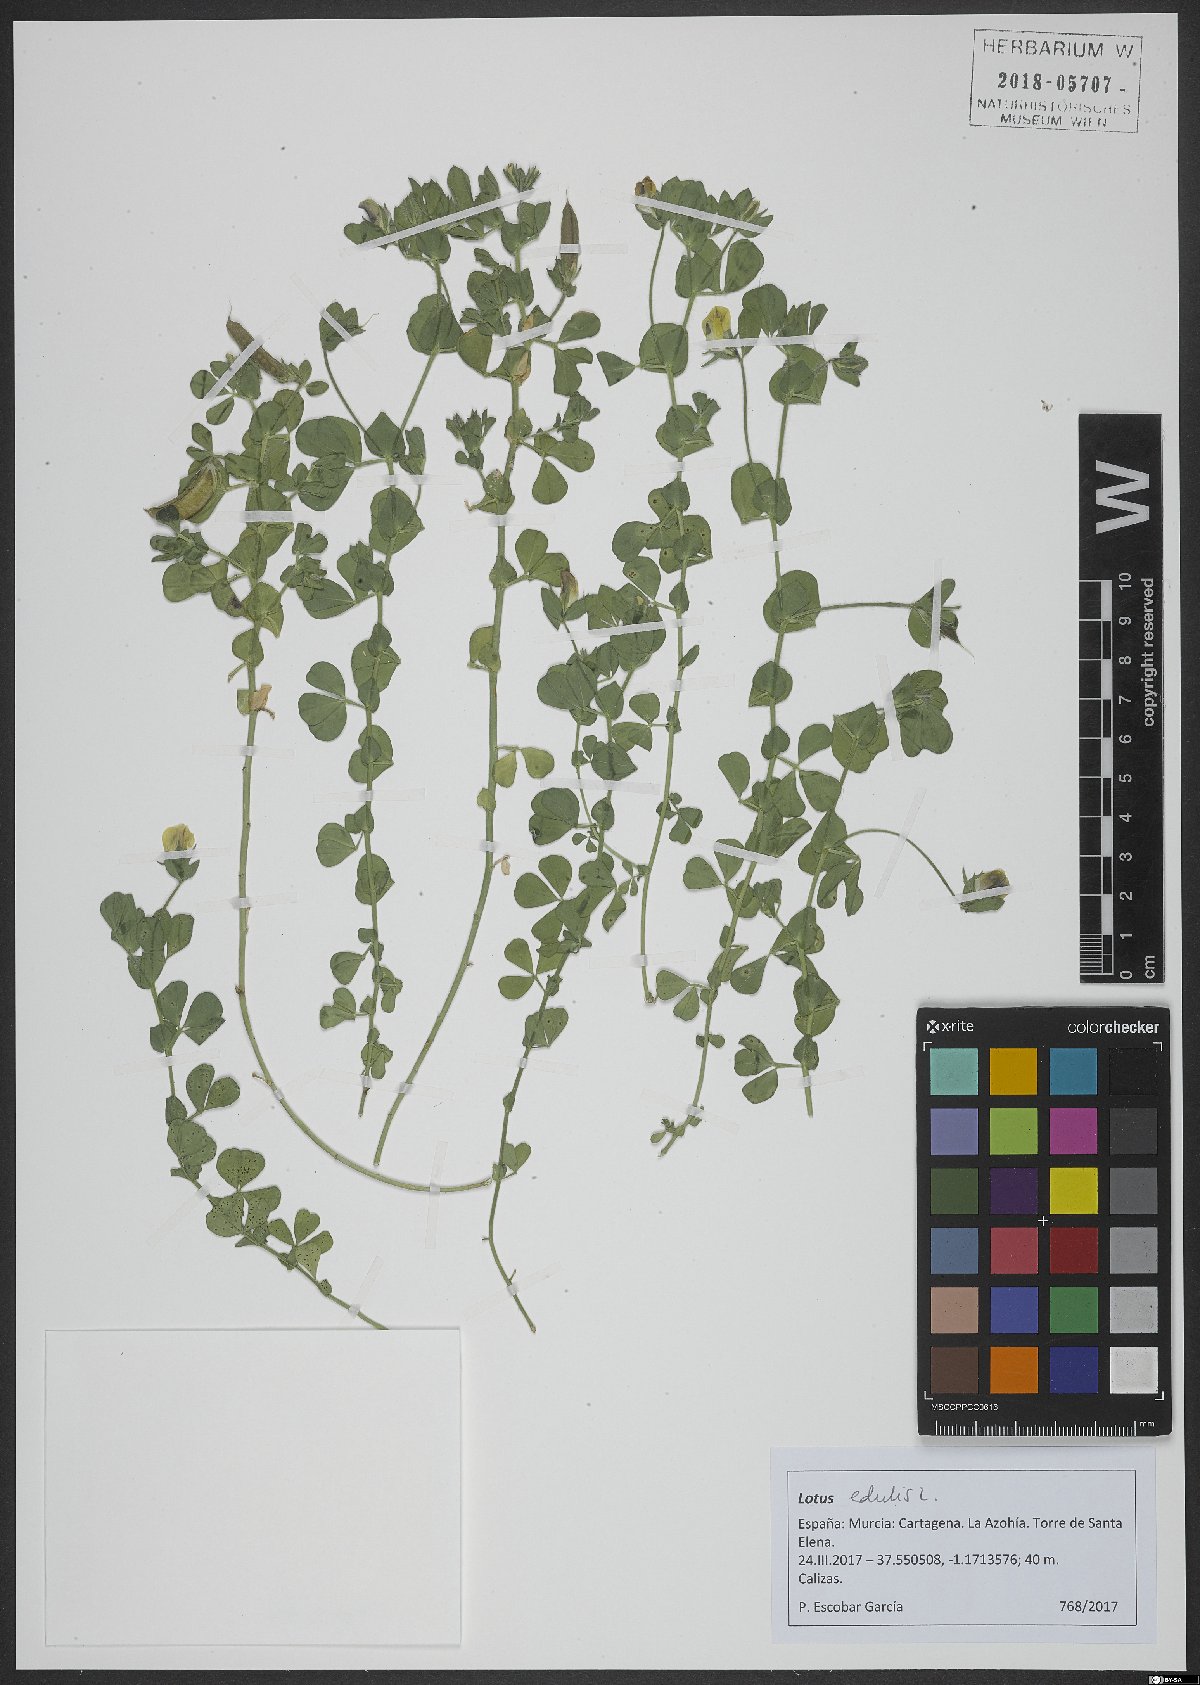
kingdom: Plantae
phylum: Tracheophyta
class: Magnoliopsida
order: Fabales
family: Fabaceae
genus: Lotus
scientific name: Lotus edulis
